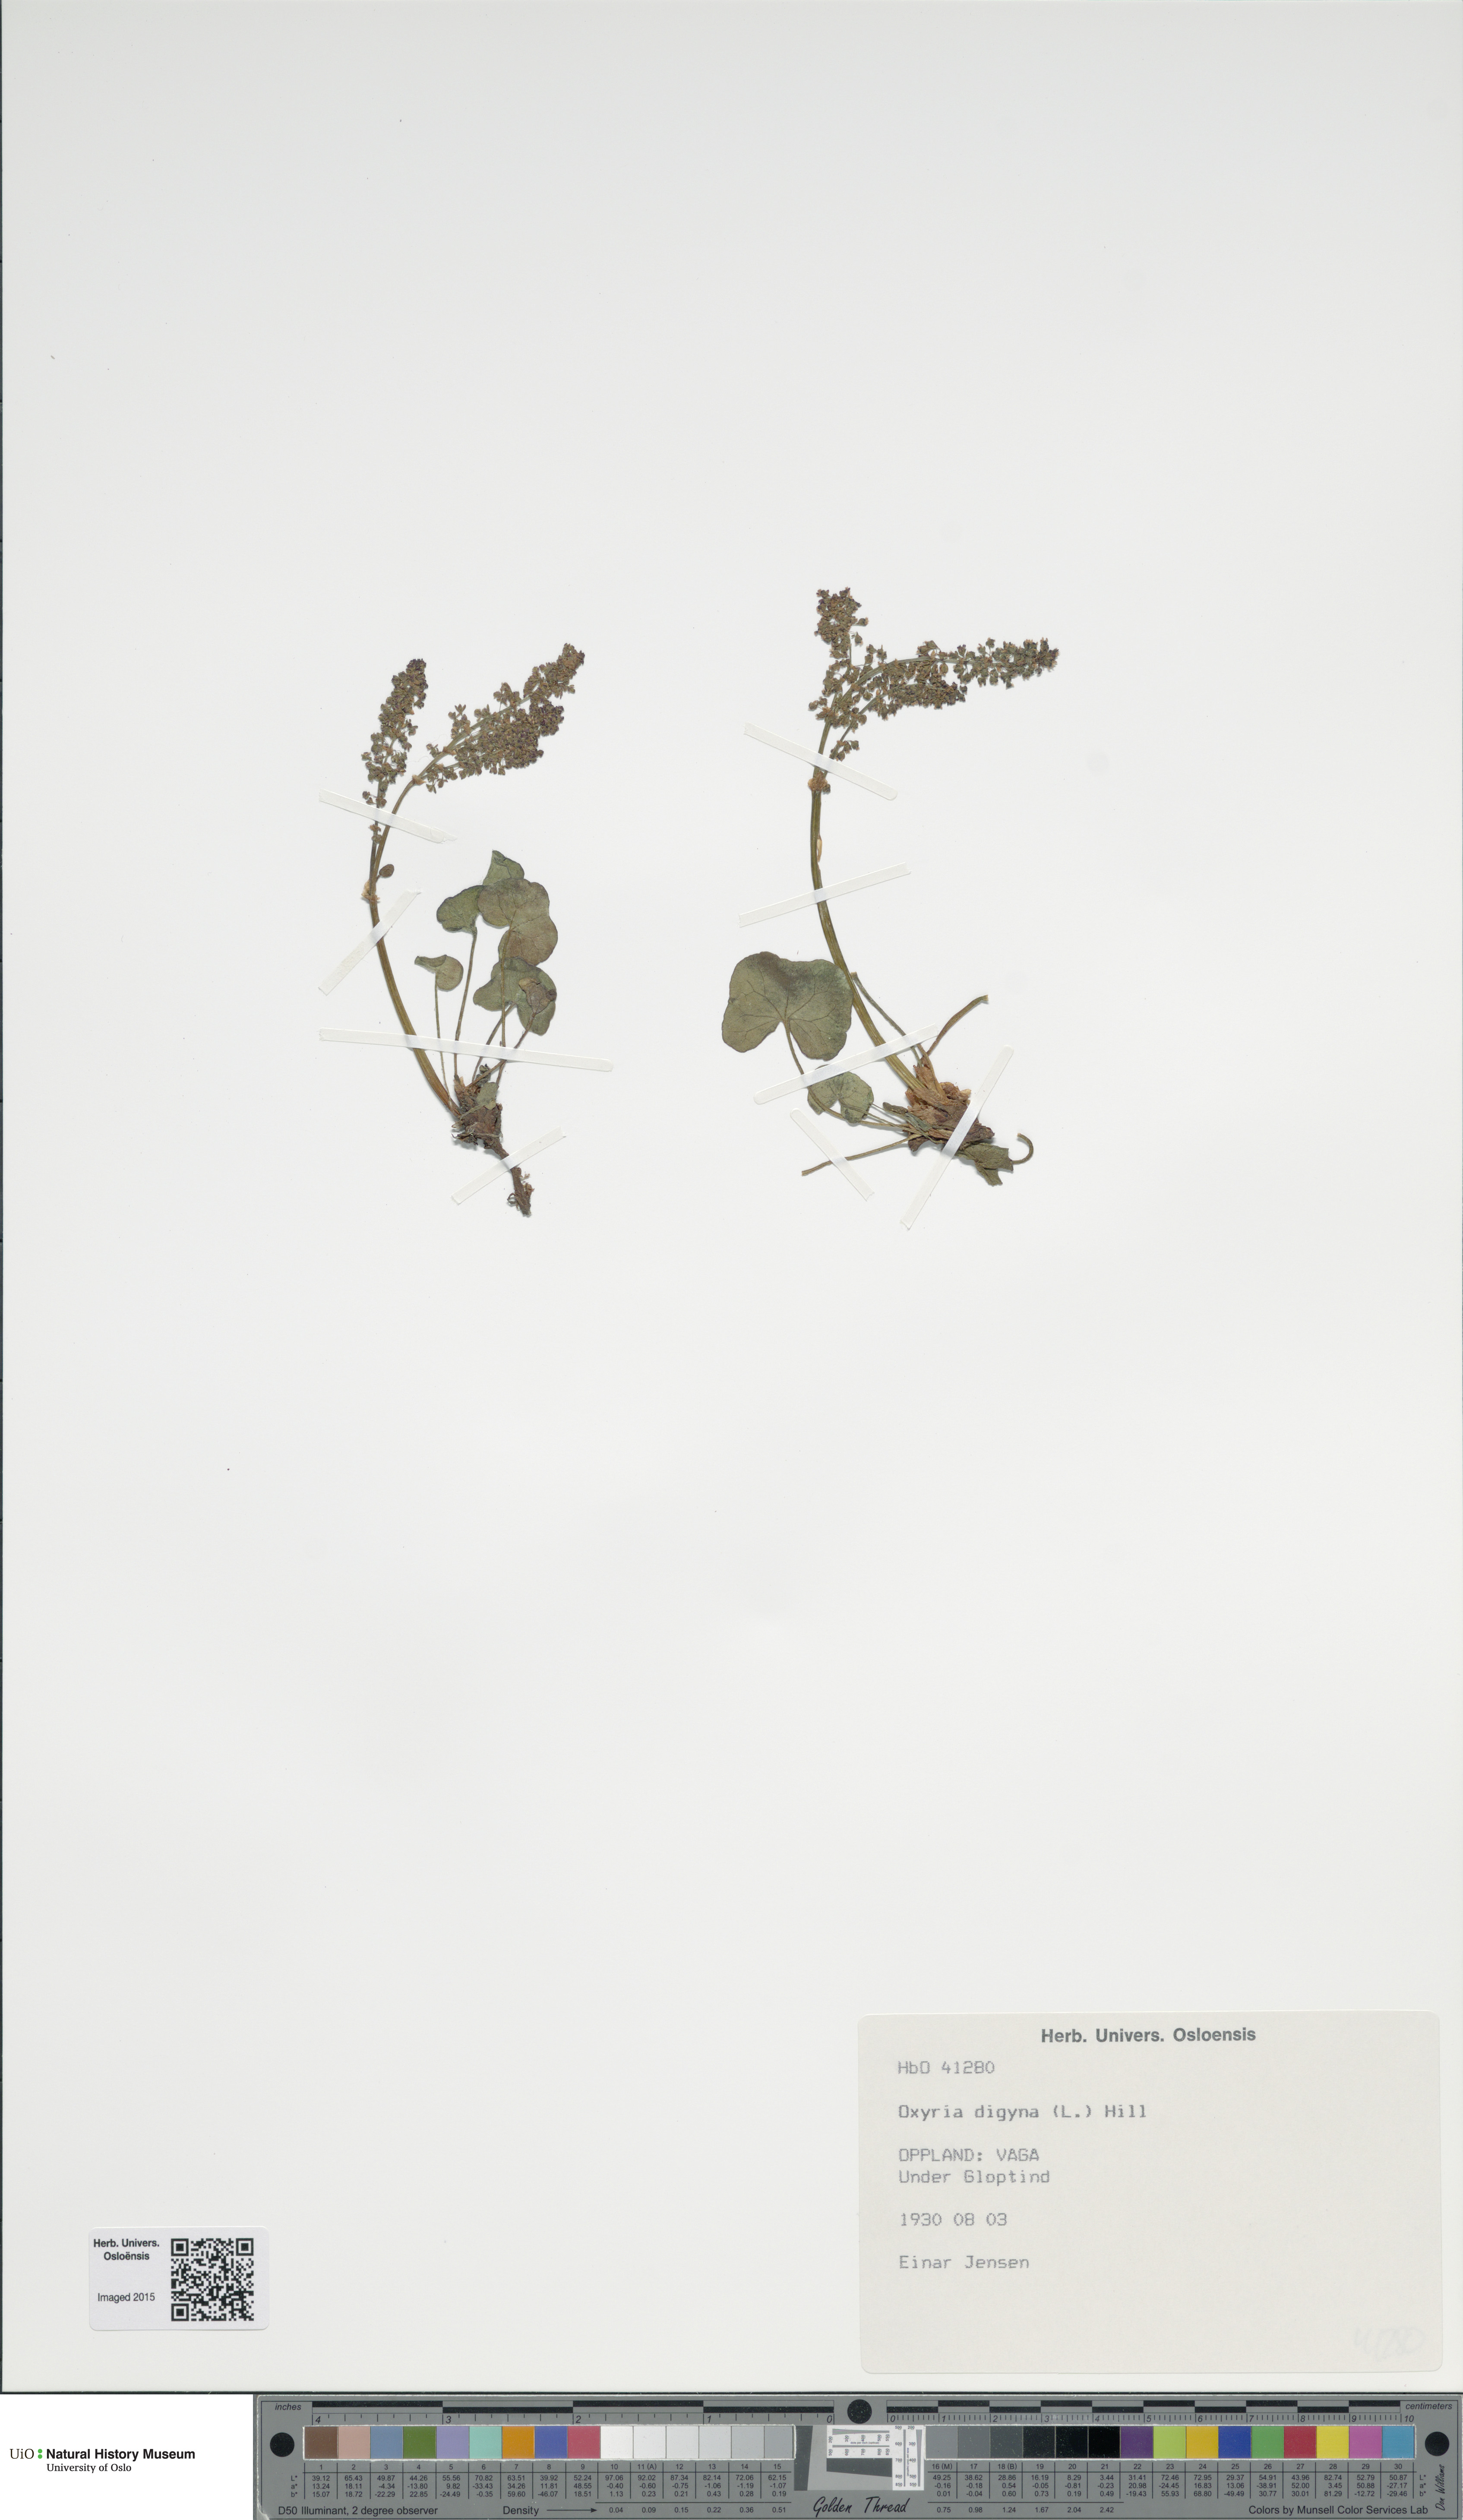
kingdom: Plantae
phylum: Tracheophyta
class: Magnoliopsida
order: Caryophyllales
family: Polygonaceae
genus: Oxyria
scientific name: Oxyria digyna
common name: Alpine mountain-sorrel
